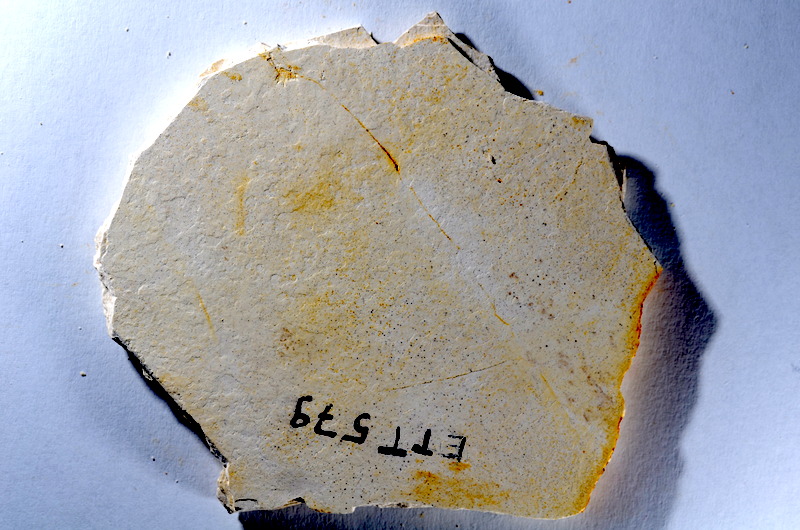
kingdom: Animalia
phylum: Chordata
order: Salmoniformes
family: Orthogonikleithridae
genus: Orthogonikleithrus
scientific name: Orthogonikleithrus hoelli
